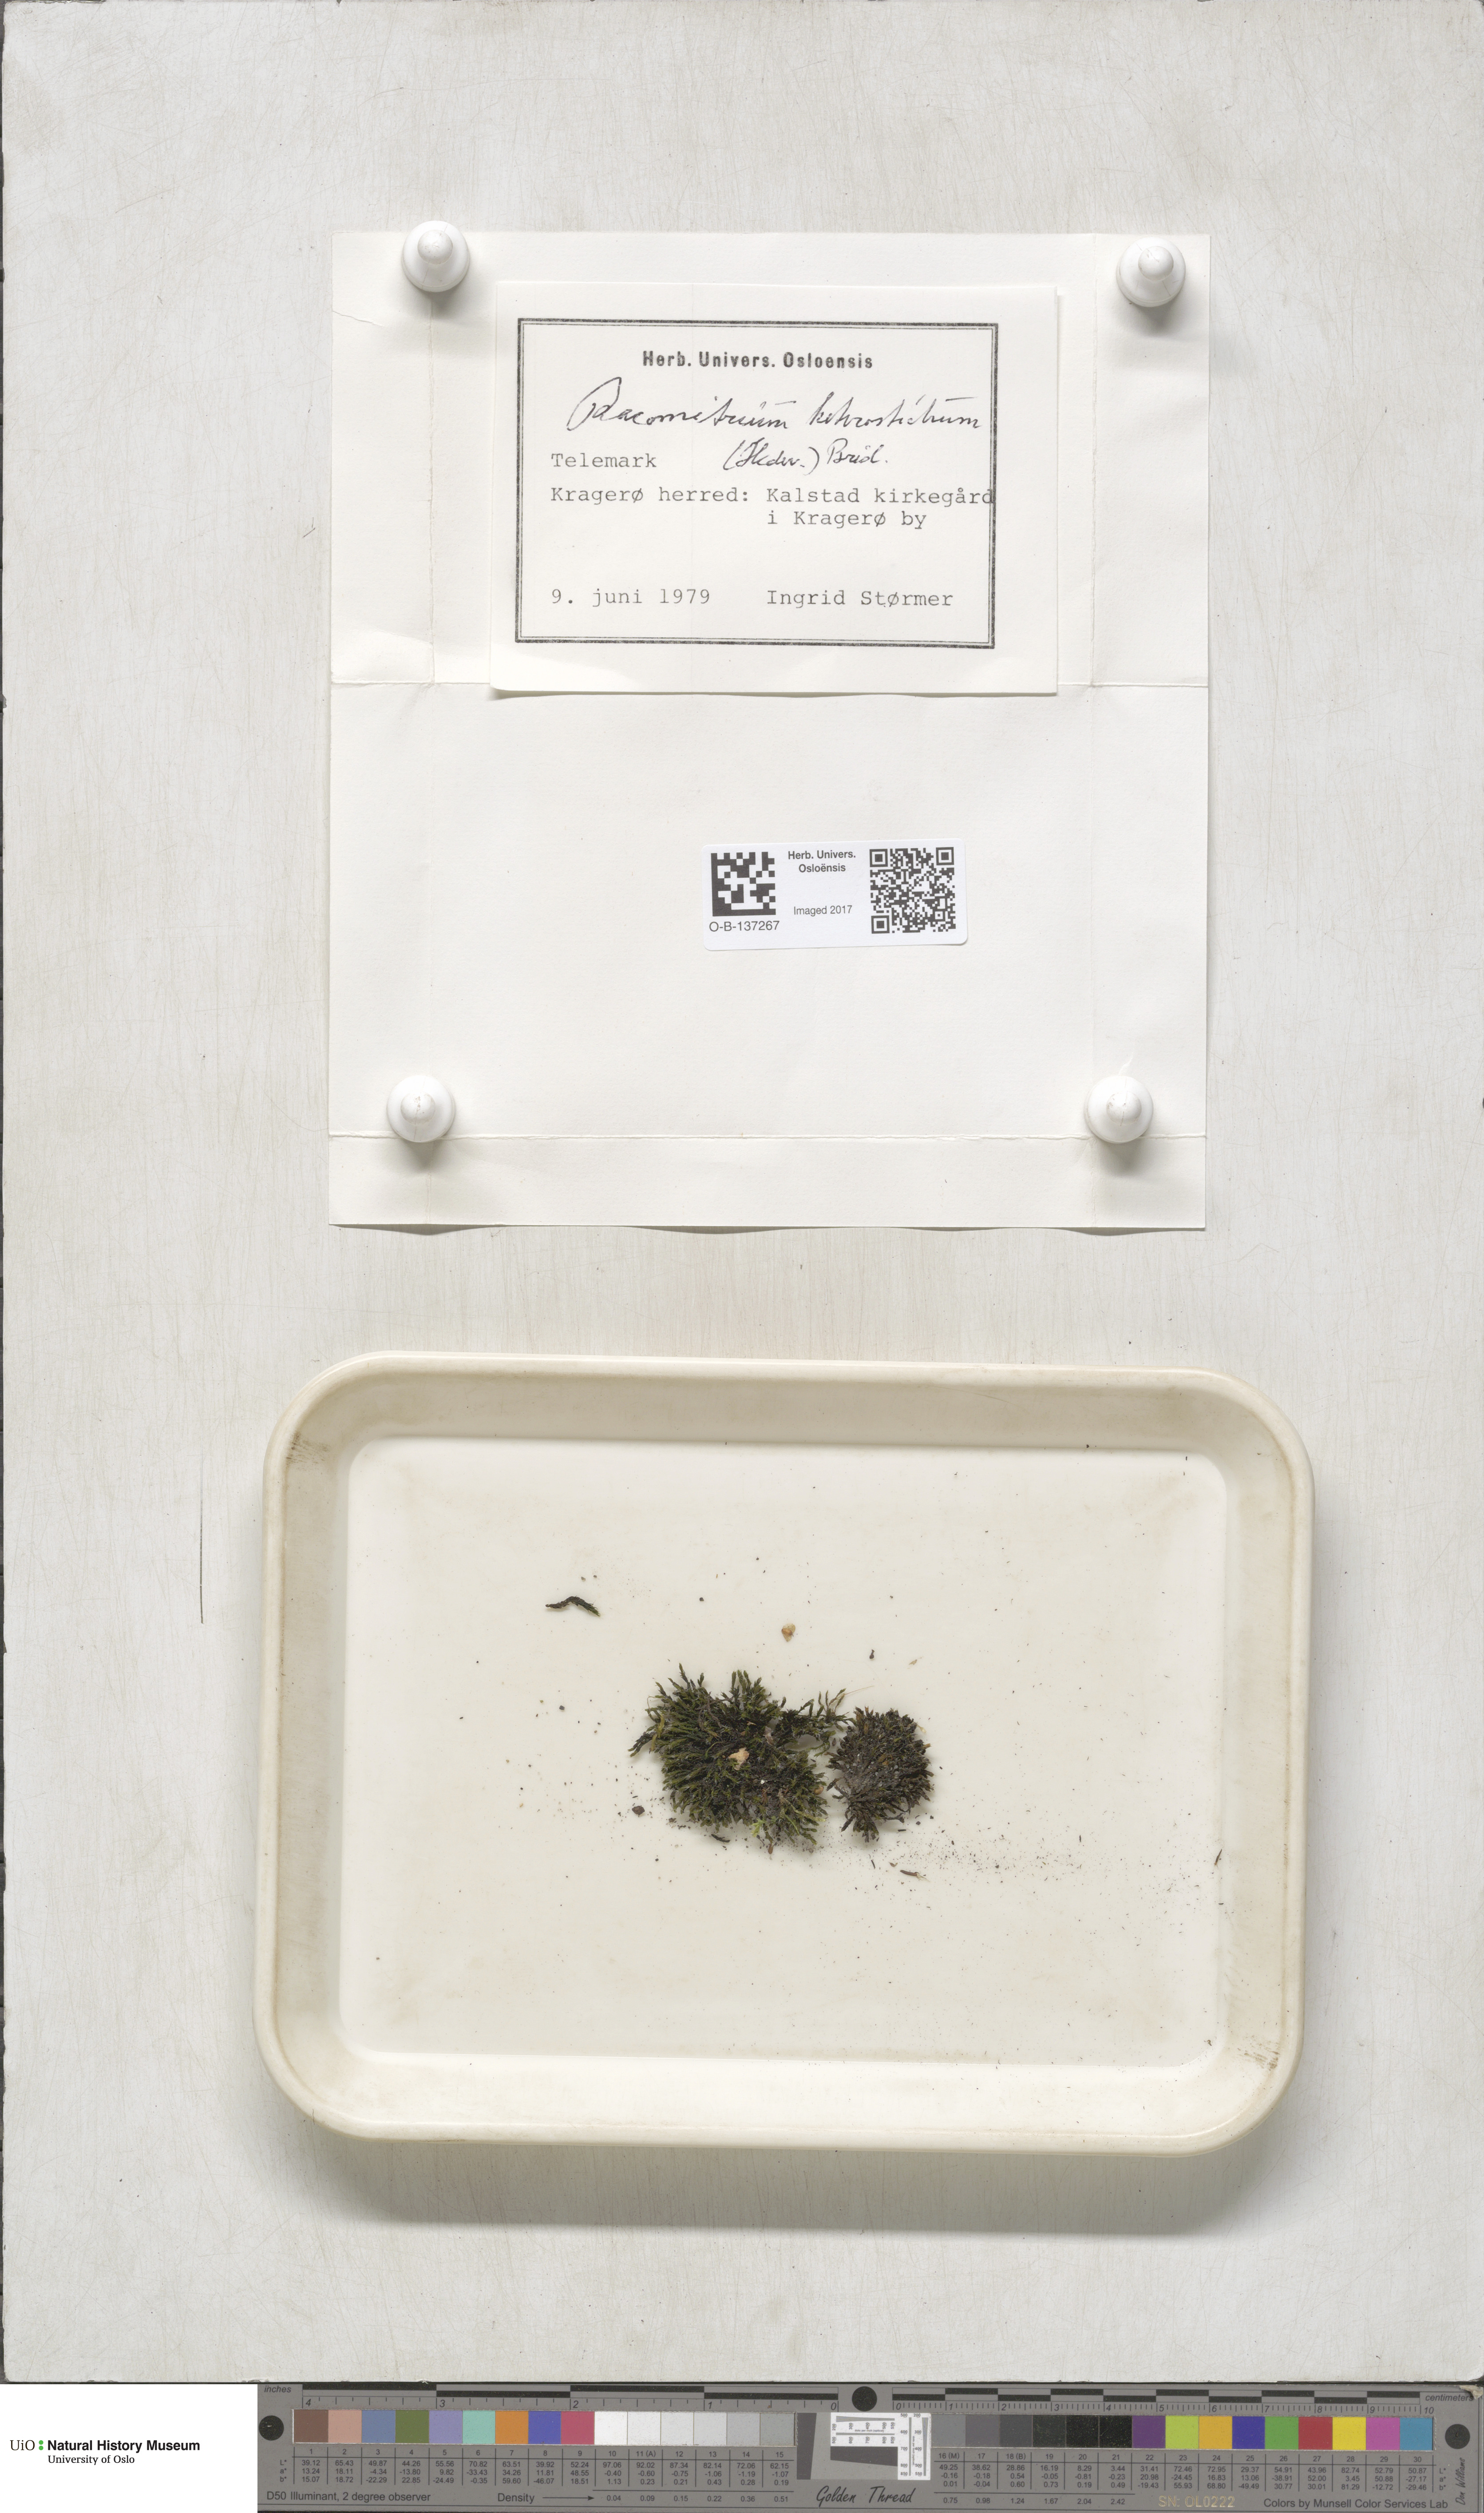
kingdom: Plantae
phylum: Bryophyta
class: Bryopsida
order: Grimmiales
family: Grimmiaceae
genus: Bucklandiella
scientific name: Bucklandiella heterosticha
